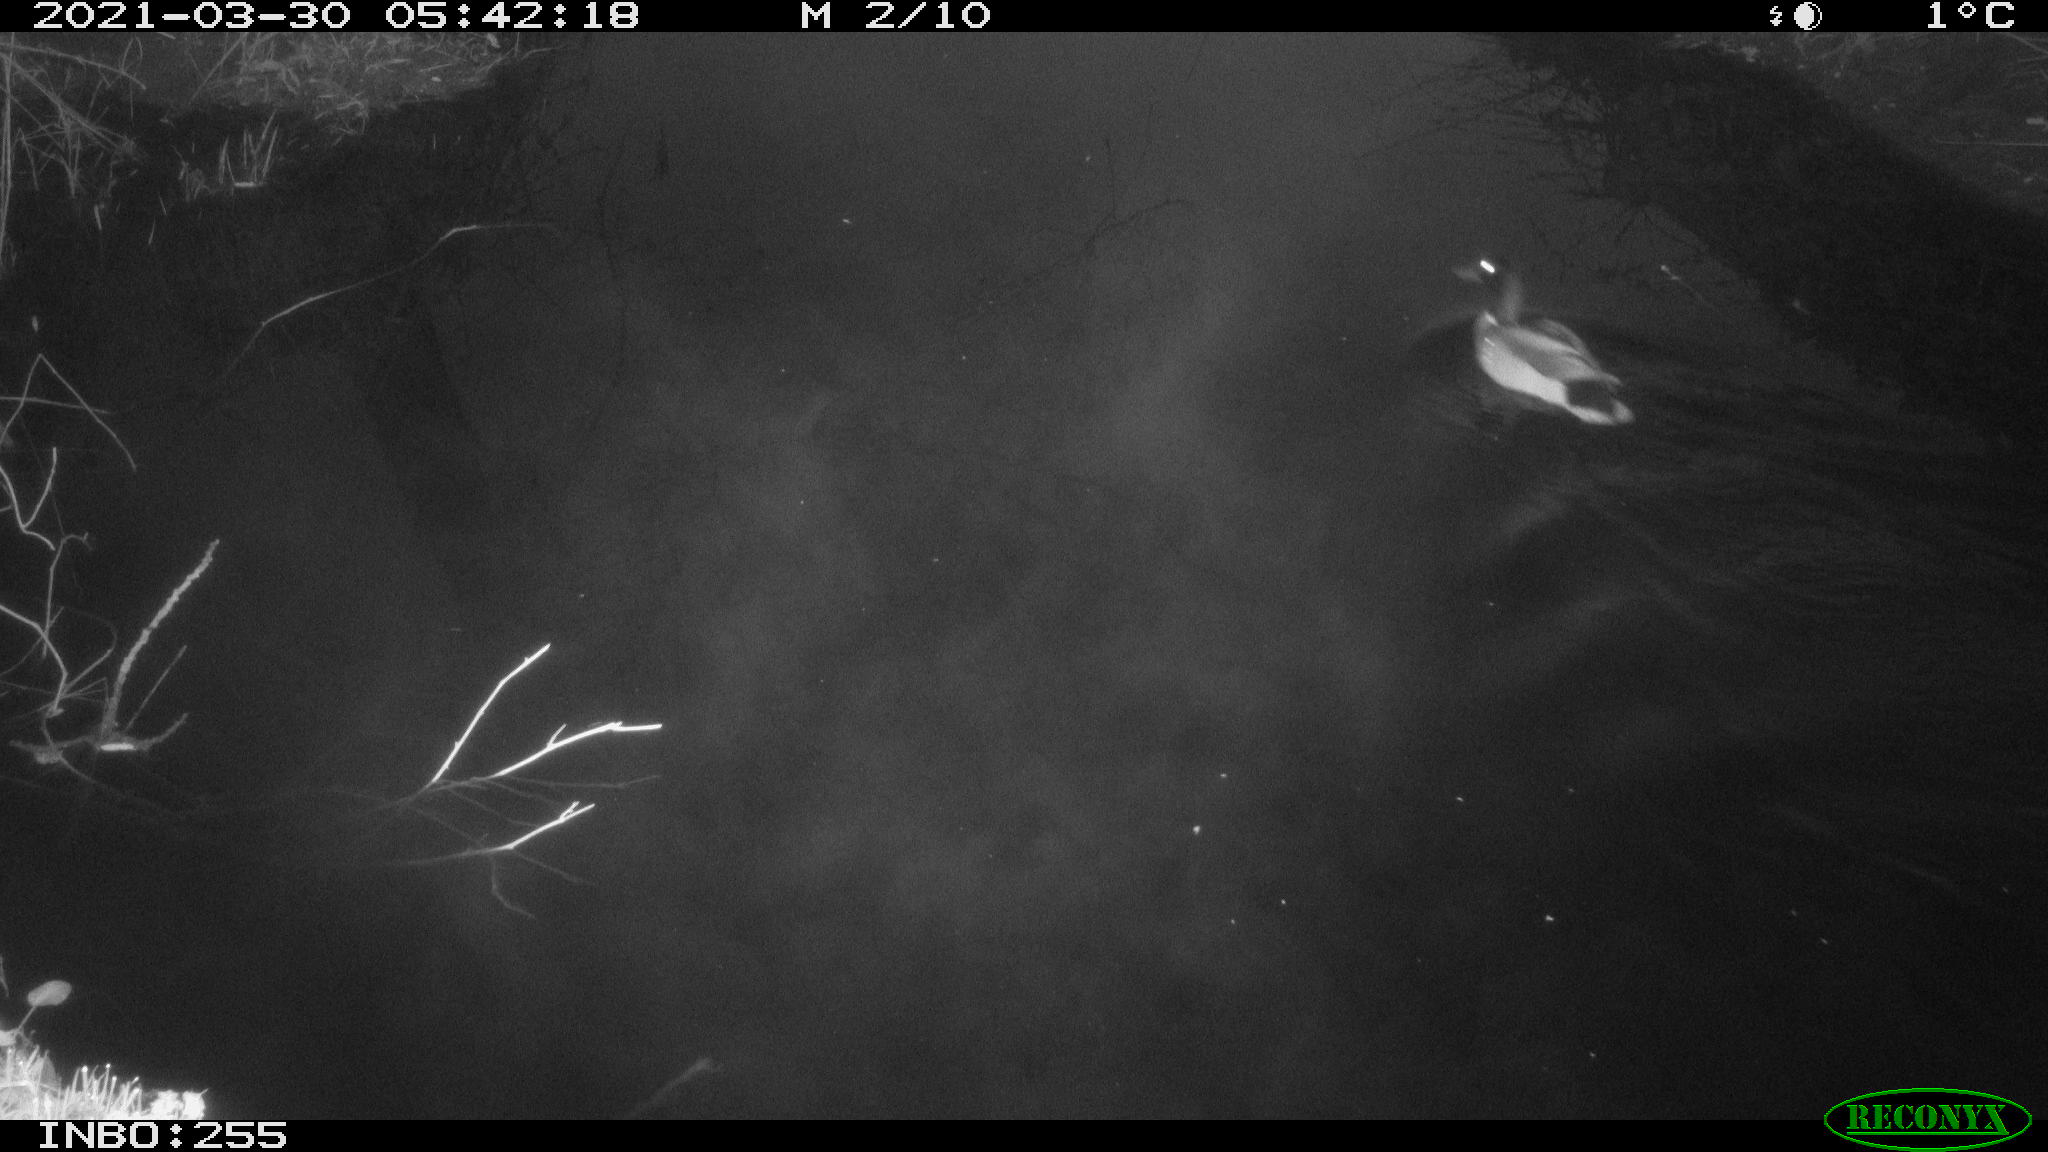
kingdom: Animalia
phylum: Chordata
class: Aves
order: Anseriformes
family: Anatidae
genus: Anas
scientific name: Anas platyrhynchos
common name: Mallard
